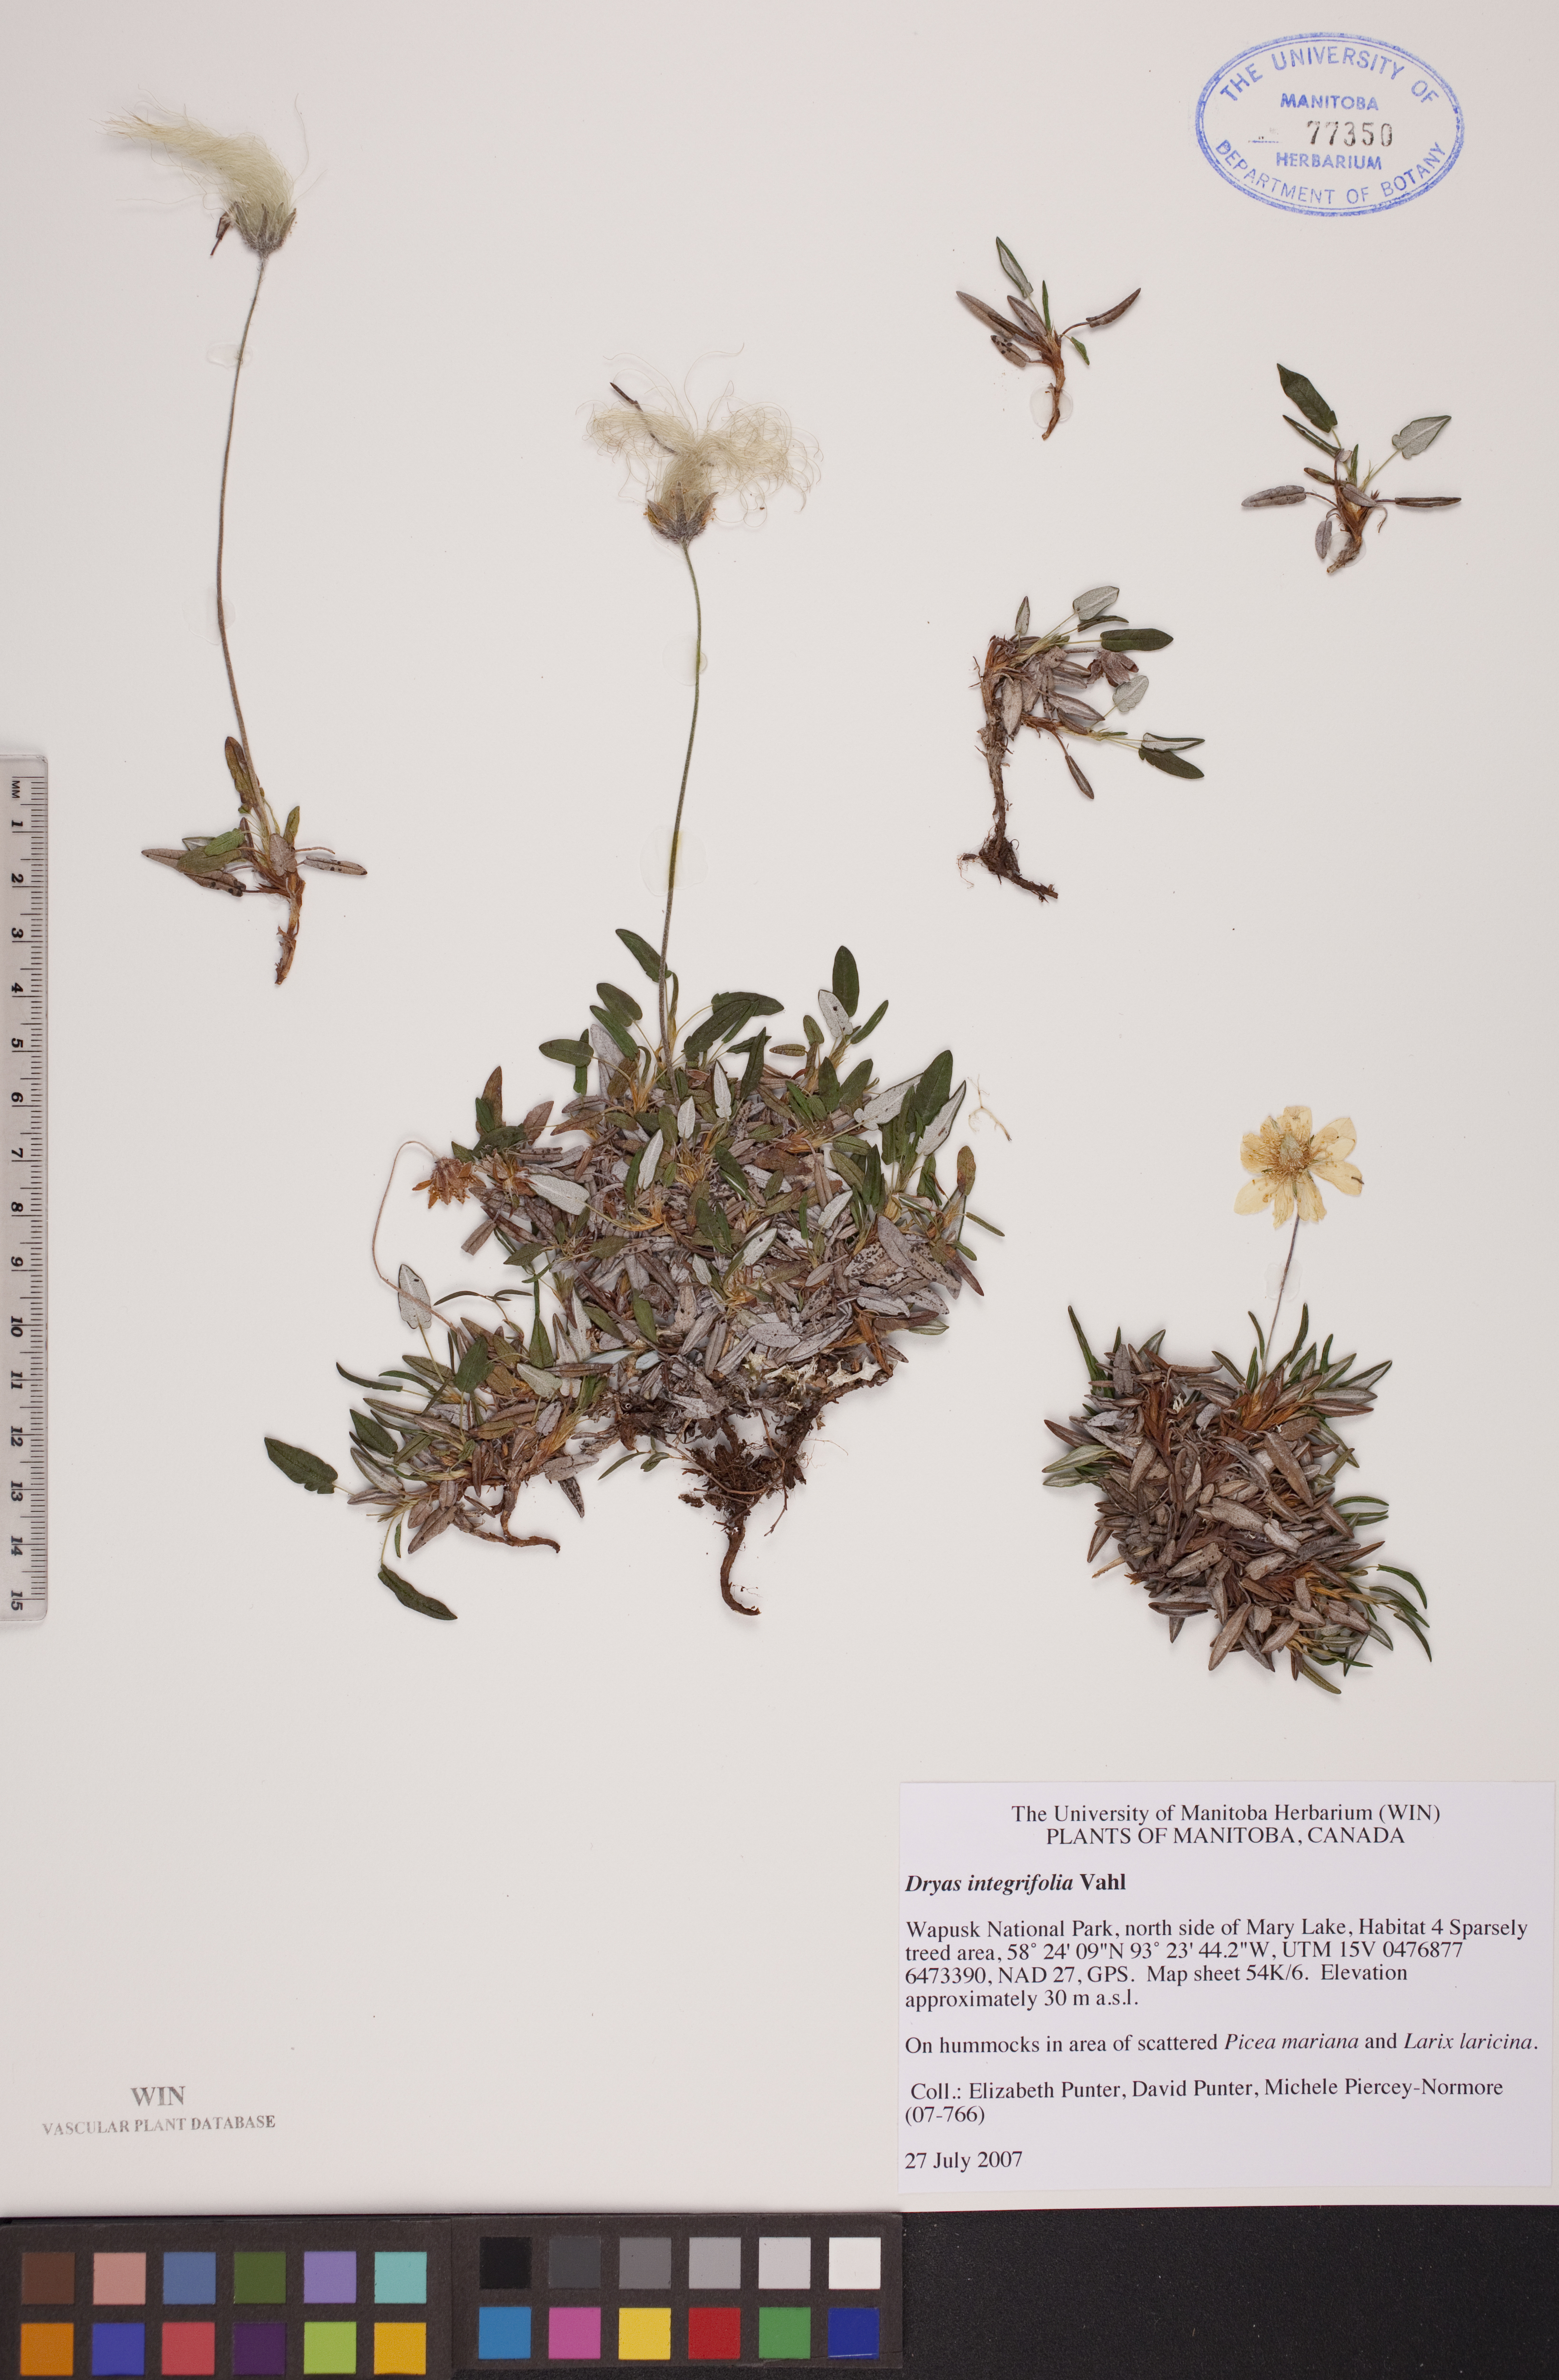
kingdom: Plantae
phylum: Tracheophyta
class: Magnoliopsida
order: Rosales
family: Rosaceae
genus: Dryas
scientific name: Dryas integrifolia
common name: Entire-leaved mountain avens
